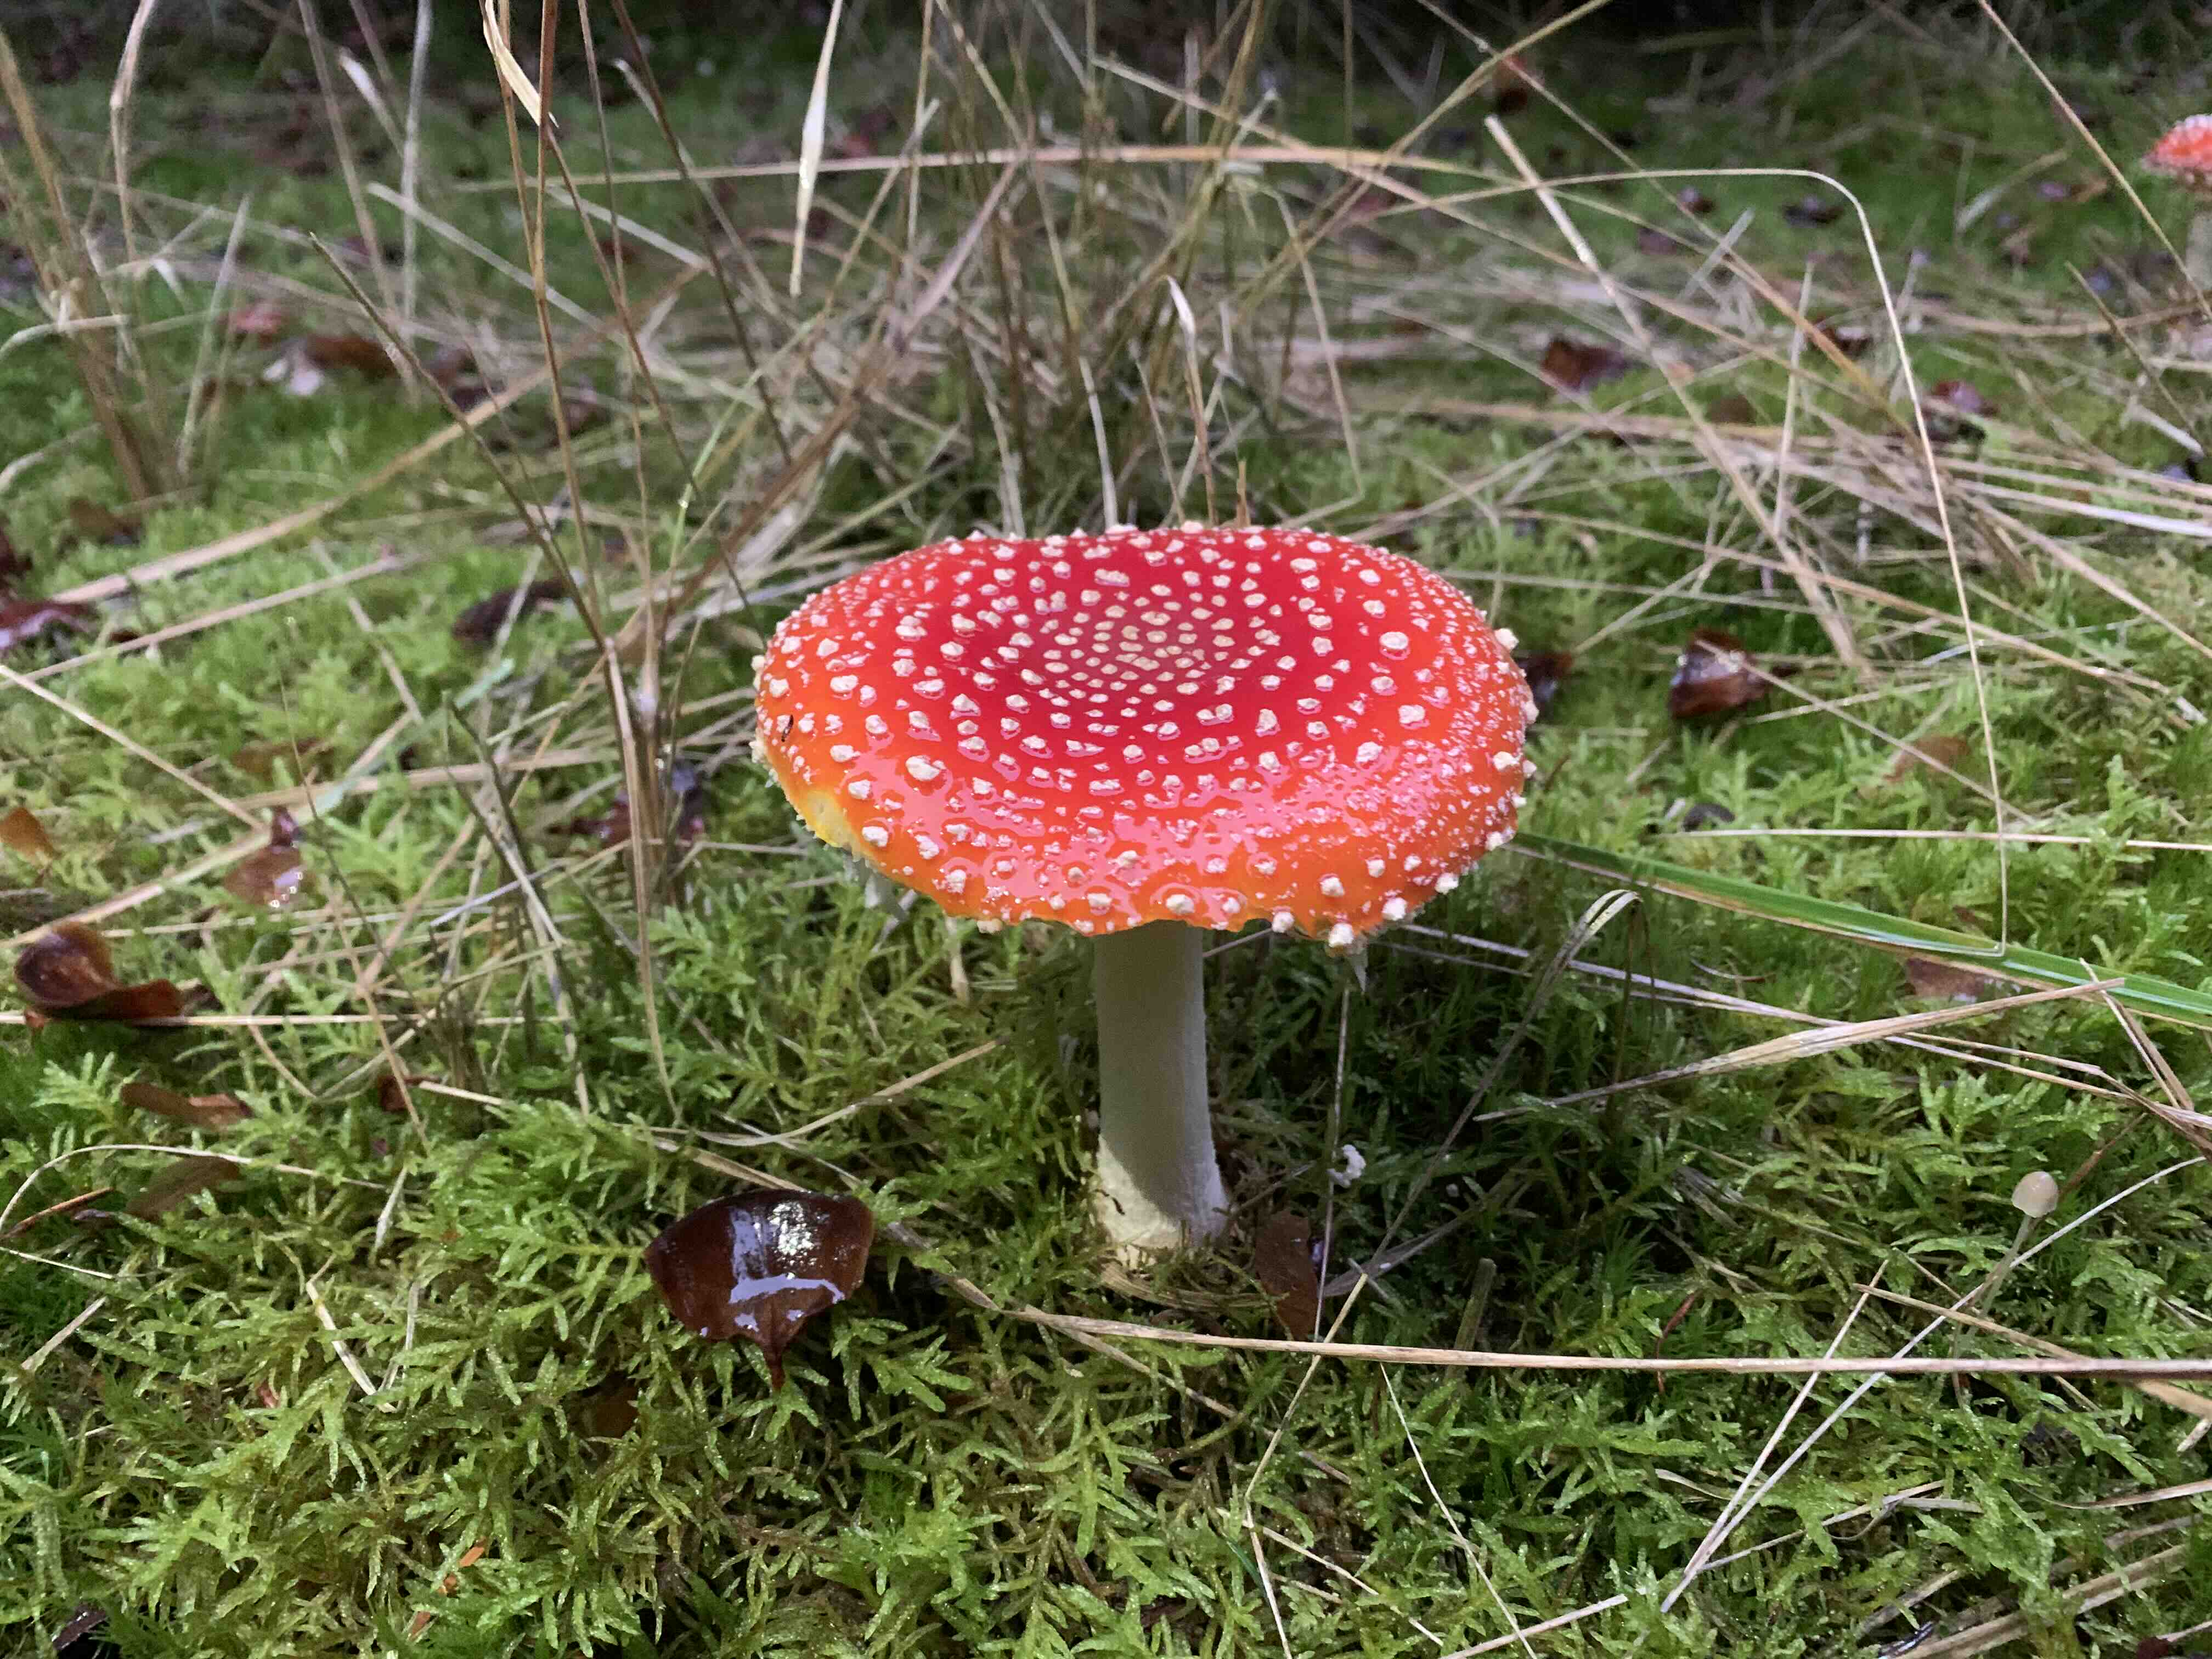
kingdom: Fungi
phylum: Basidiomycota
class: Agaricomycetes
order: Agaricales
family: Amanitaceae
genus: Amanita
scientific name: Amanita muscaria
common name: rød fluesvamp
